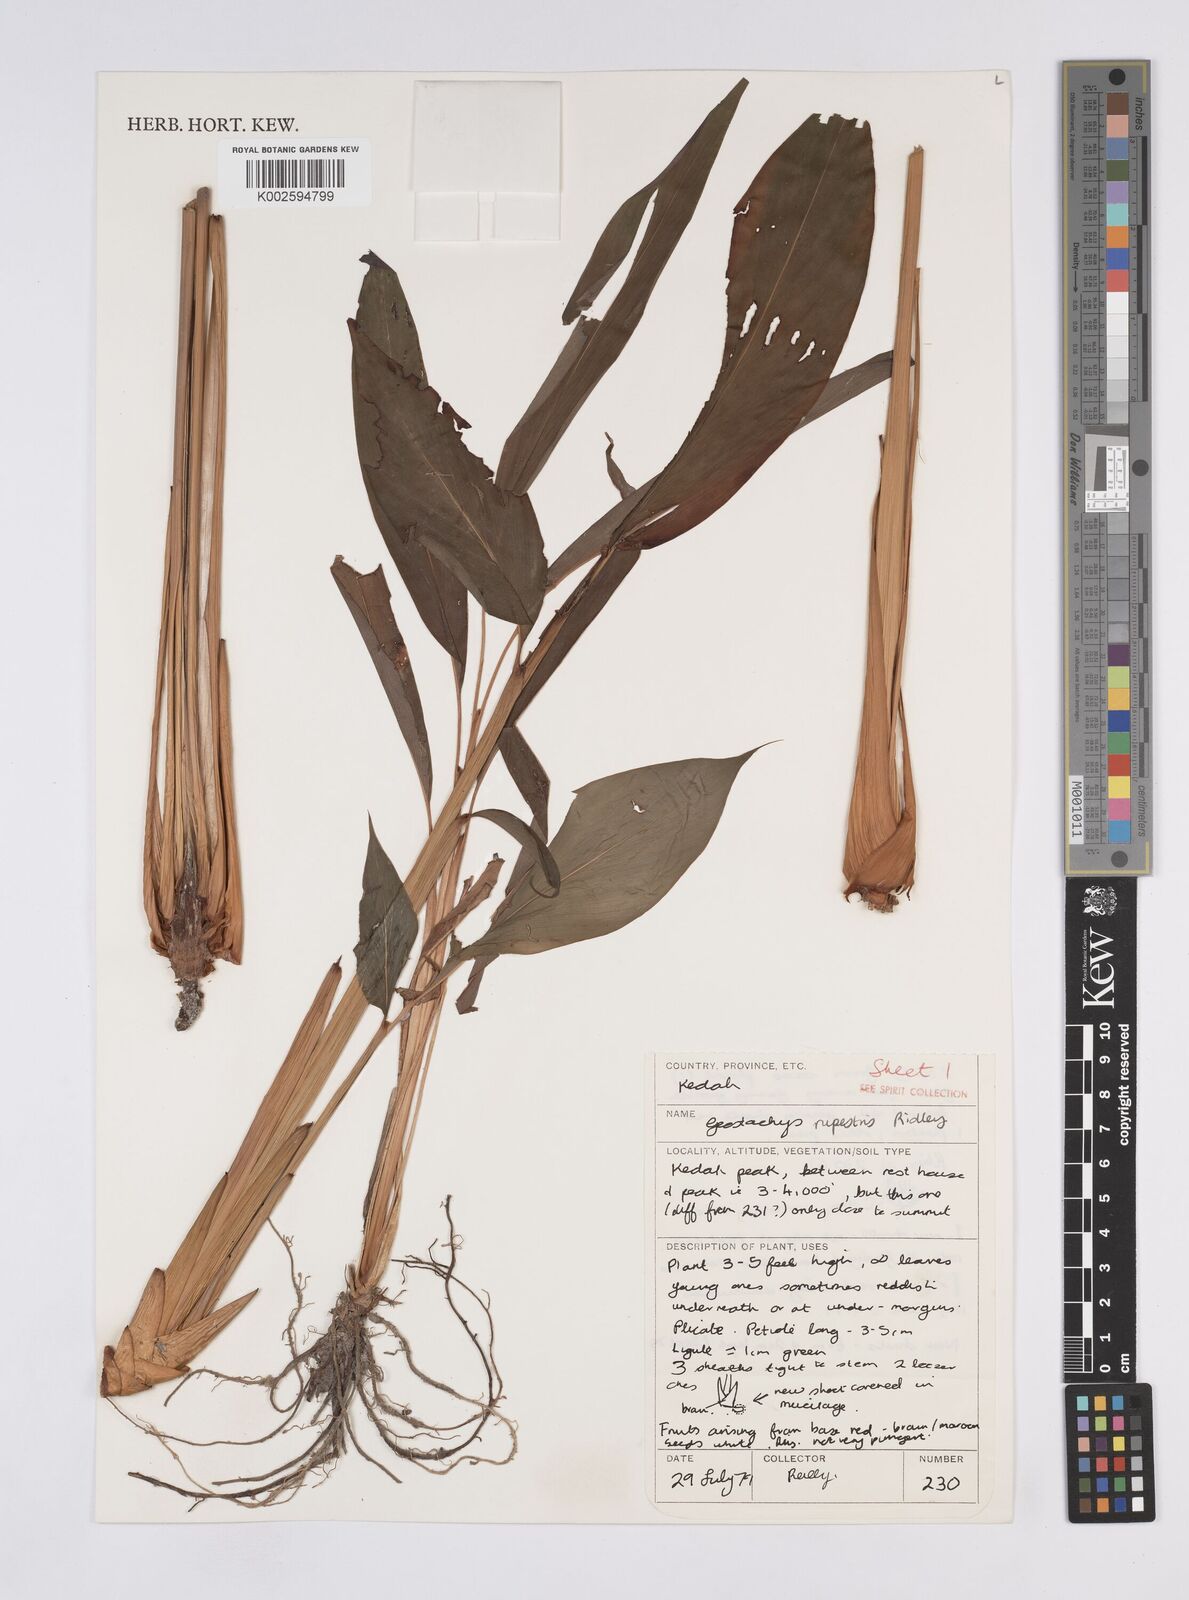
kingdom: Plantae
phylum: Tracheophyta
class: Liliopsida
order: Zingiberales
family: Zingiberaceae
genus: Geostachys
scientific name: Geostachys rupestris
